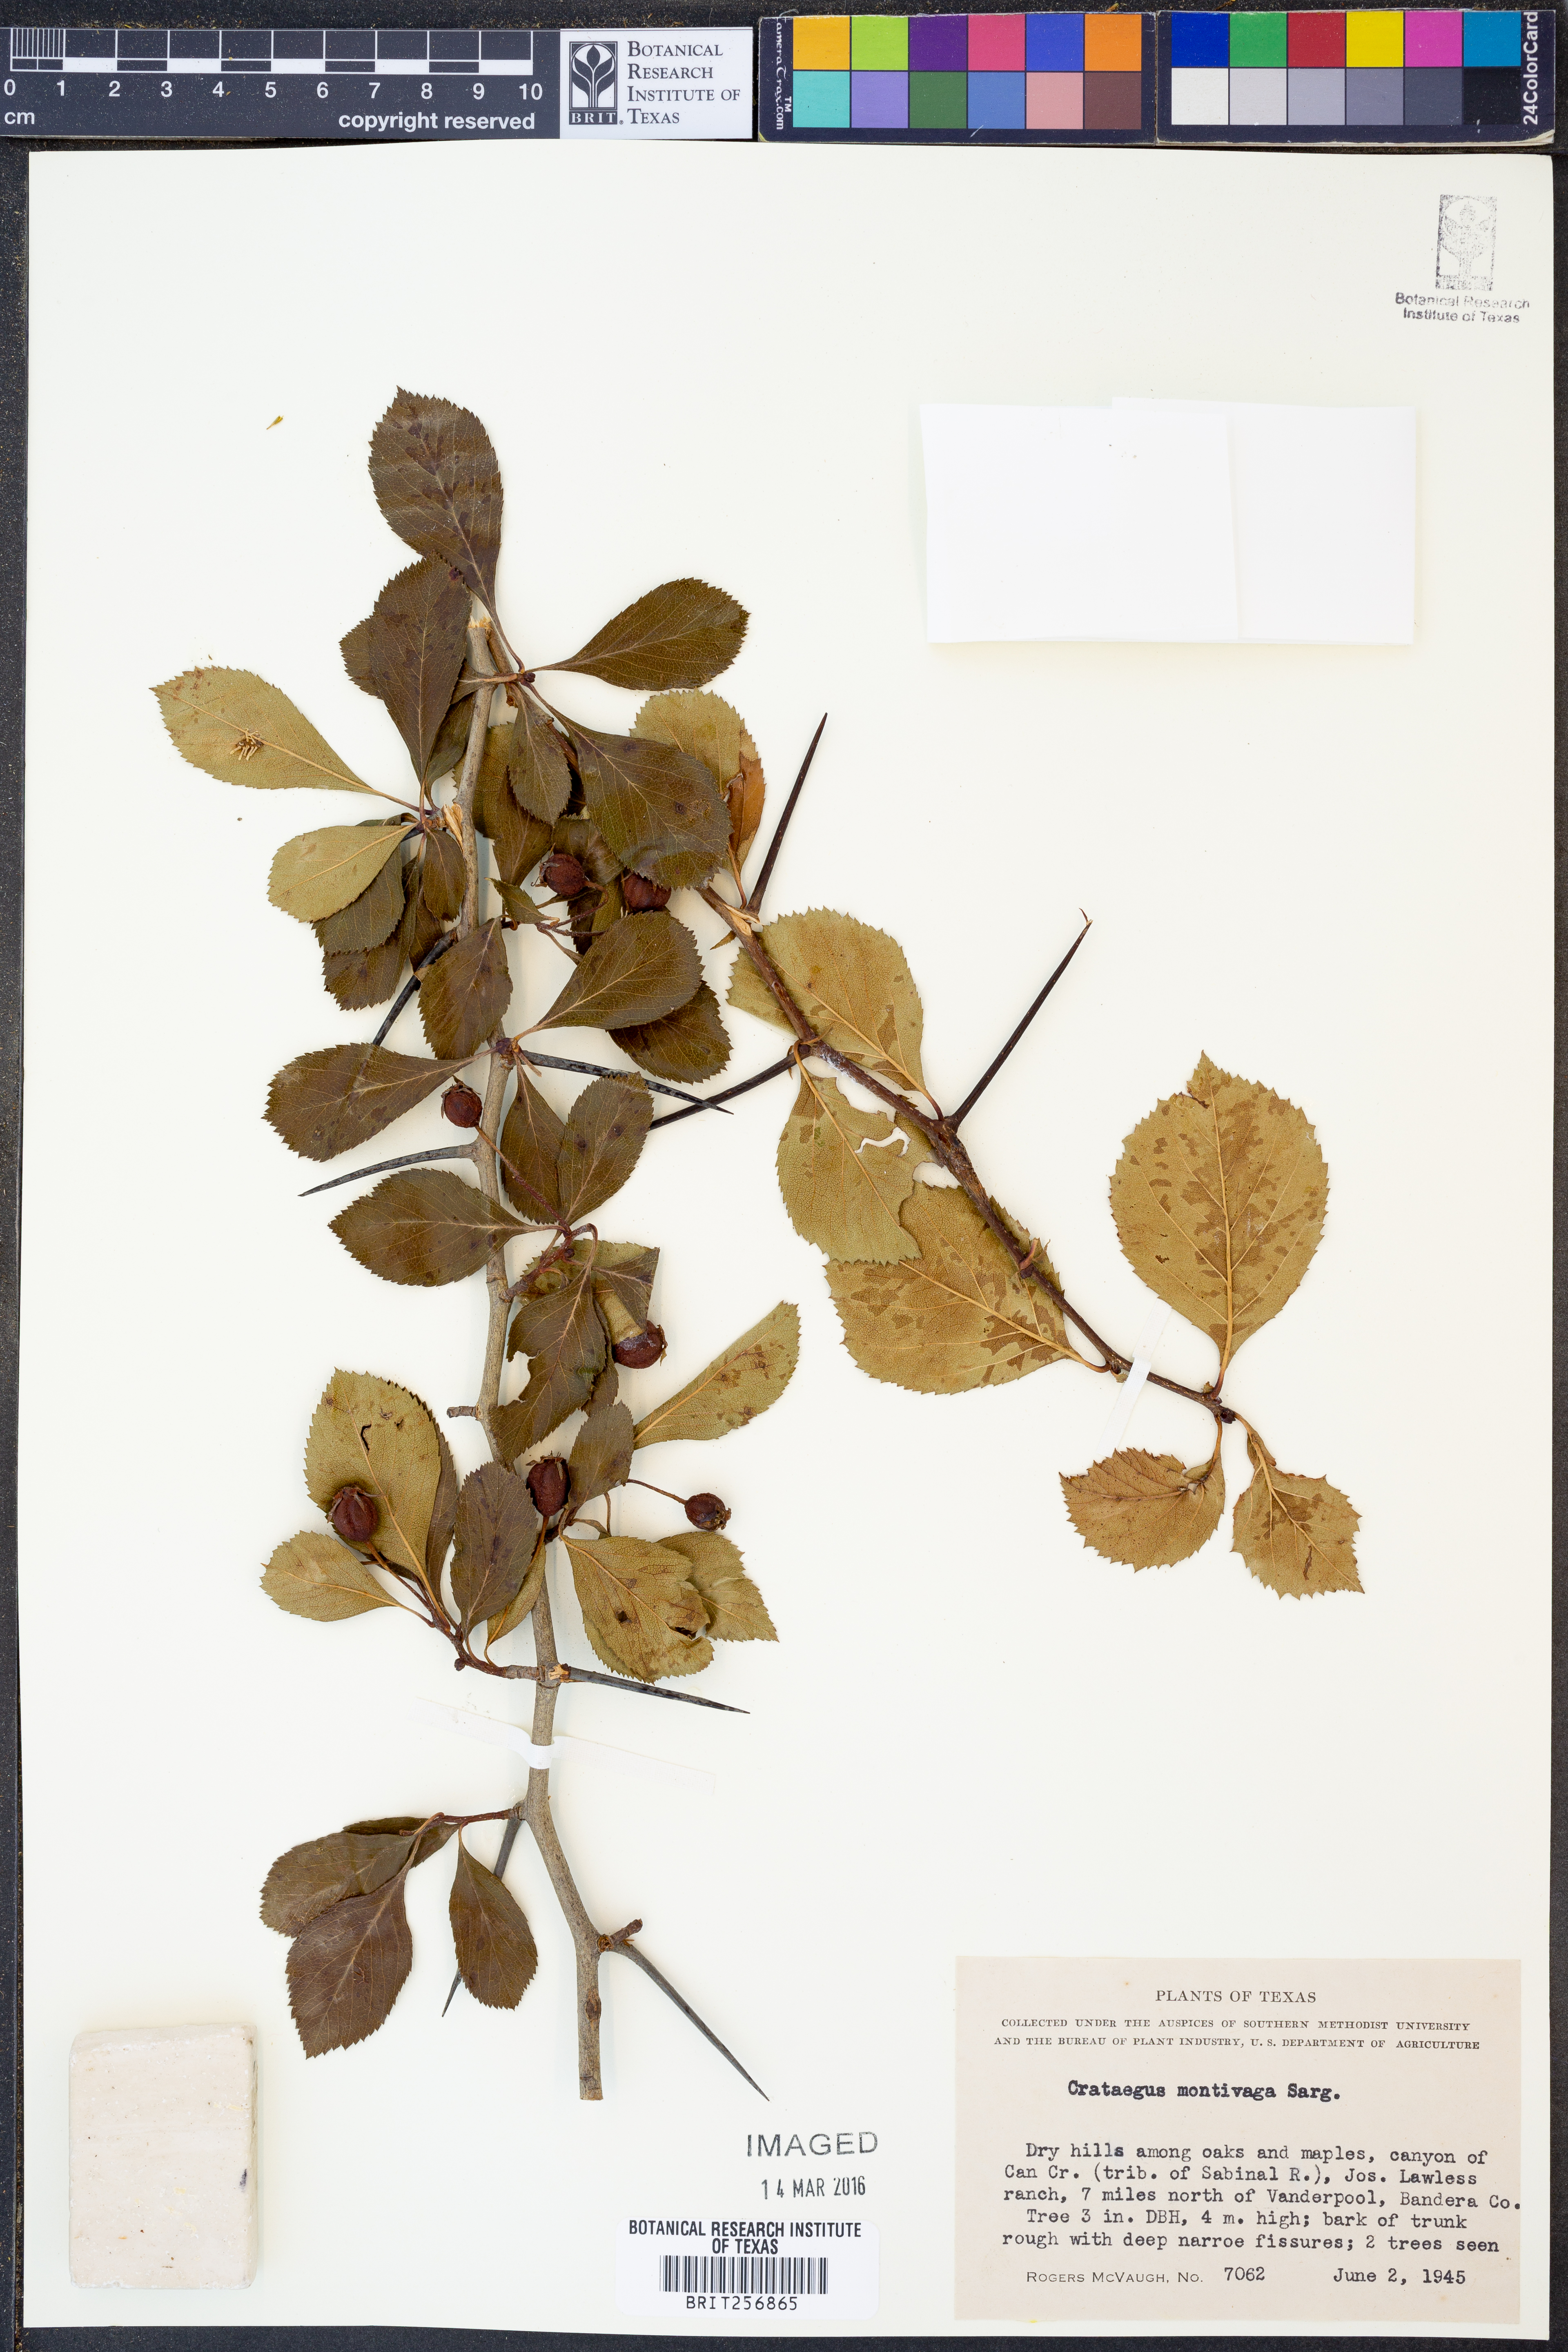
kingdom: Plantae
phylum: Tracheophyta
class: Magnoliopsida
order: Rosales
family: Rosaceae
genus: Crataegus
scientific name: Crataegus tracyi
